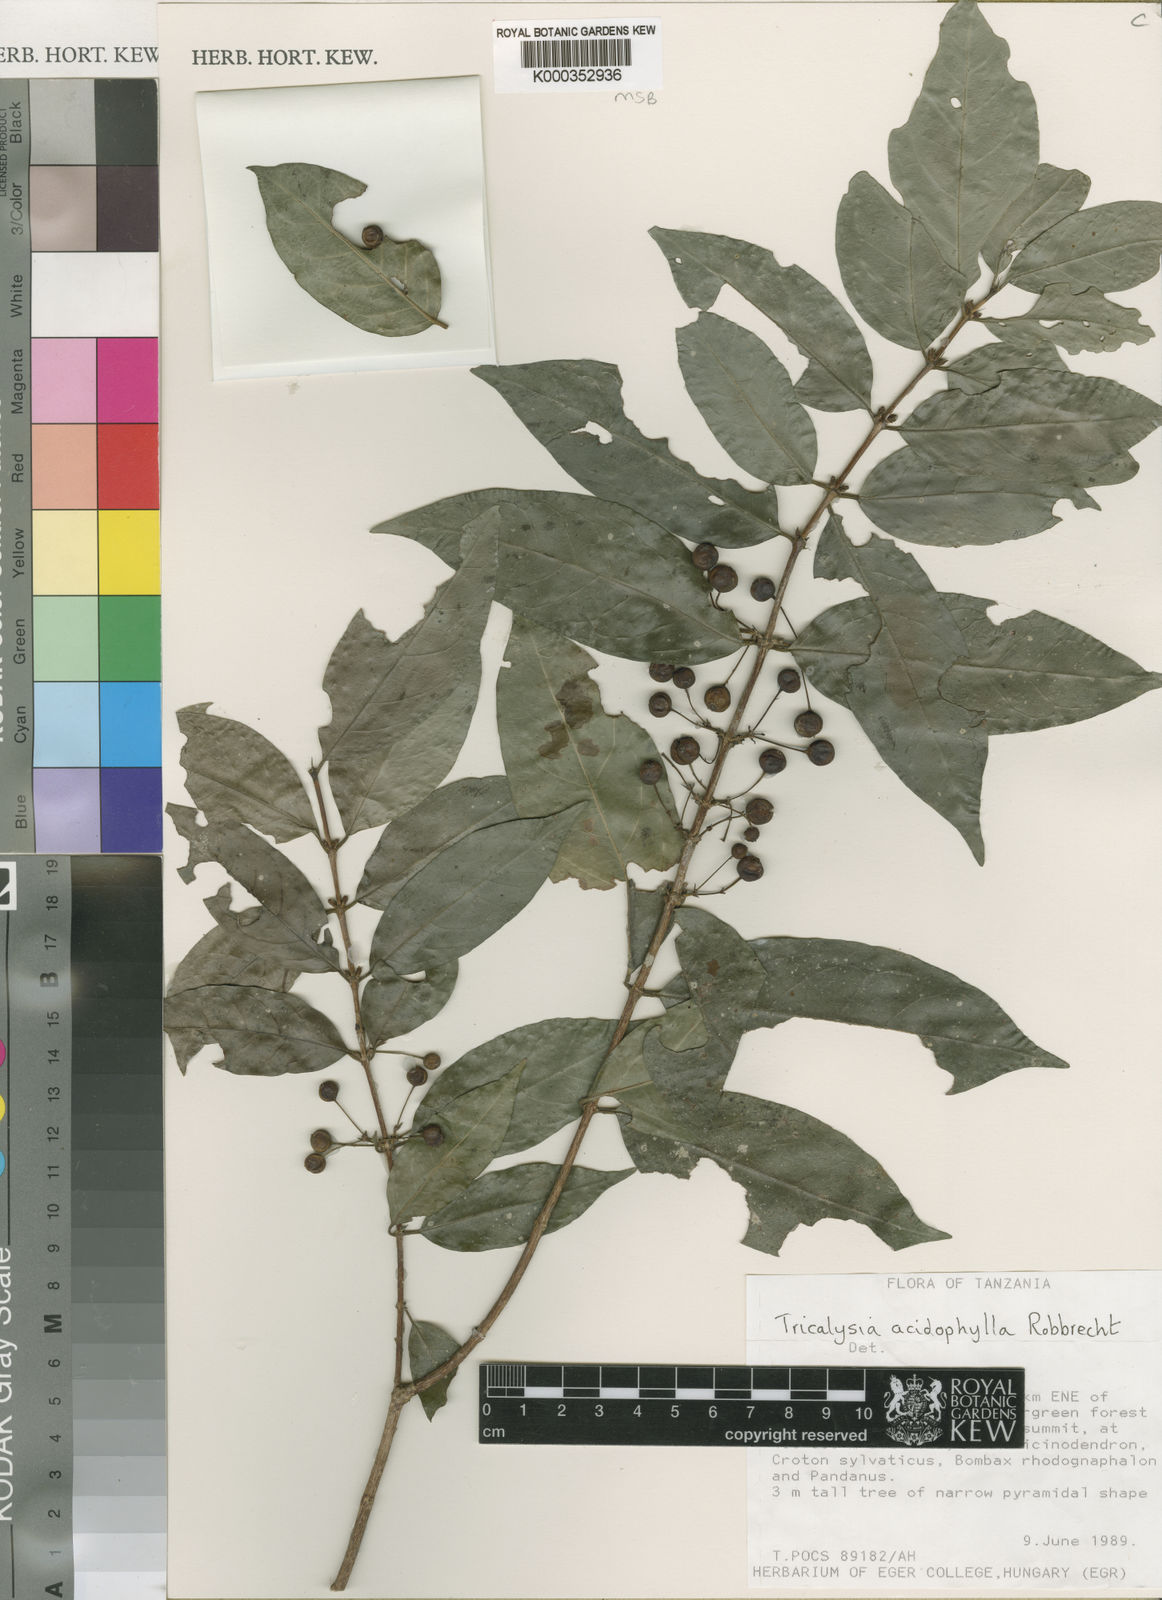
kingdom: Plantae
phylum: Tracheophyta
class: Magnoliopsida
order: Gentianales
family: Rubiaceae
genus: Empogona
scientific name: Empogona acidophylla
